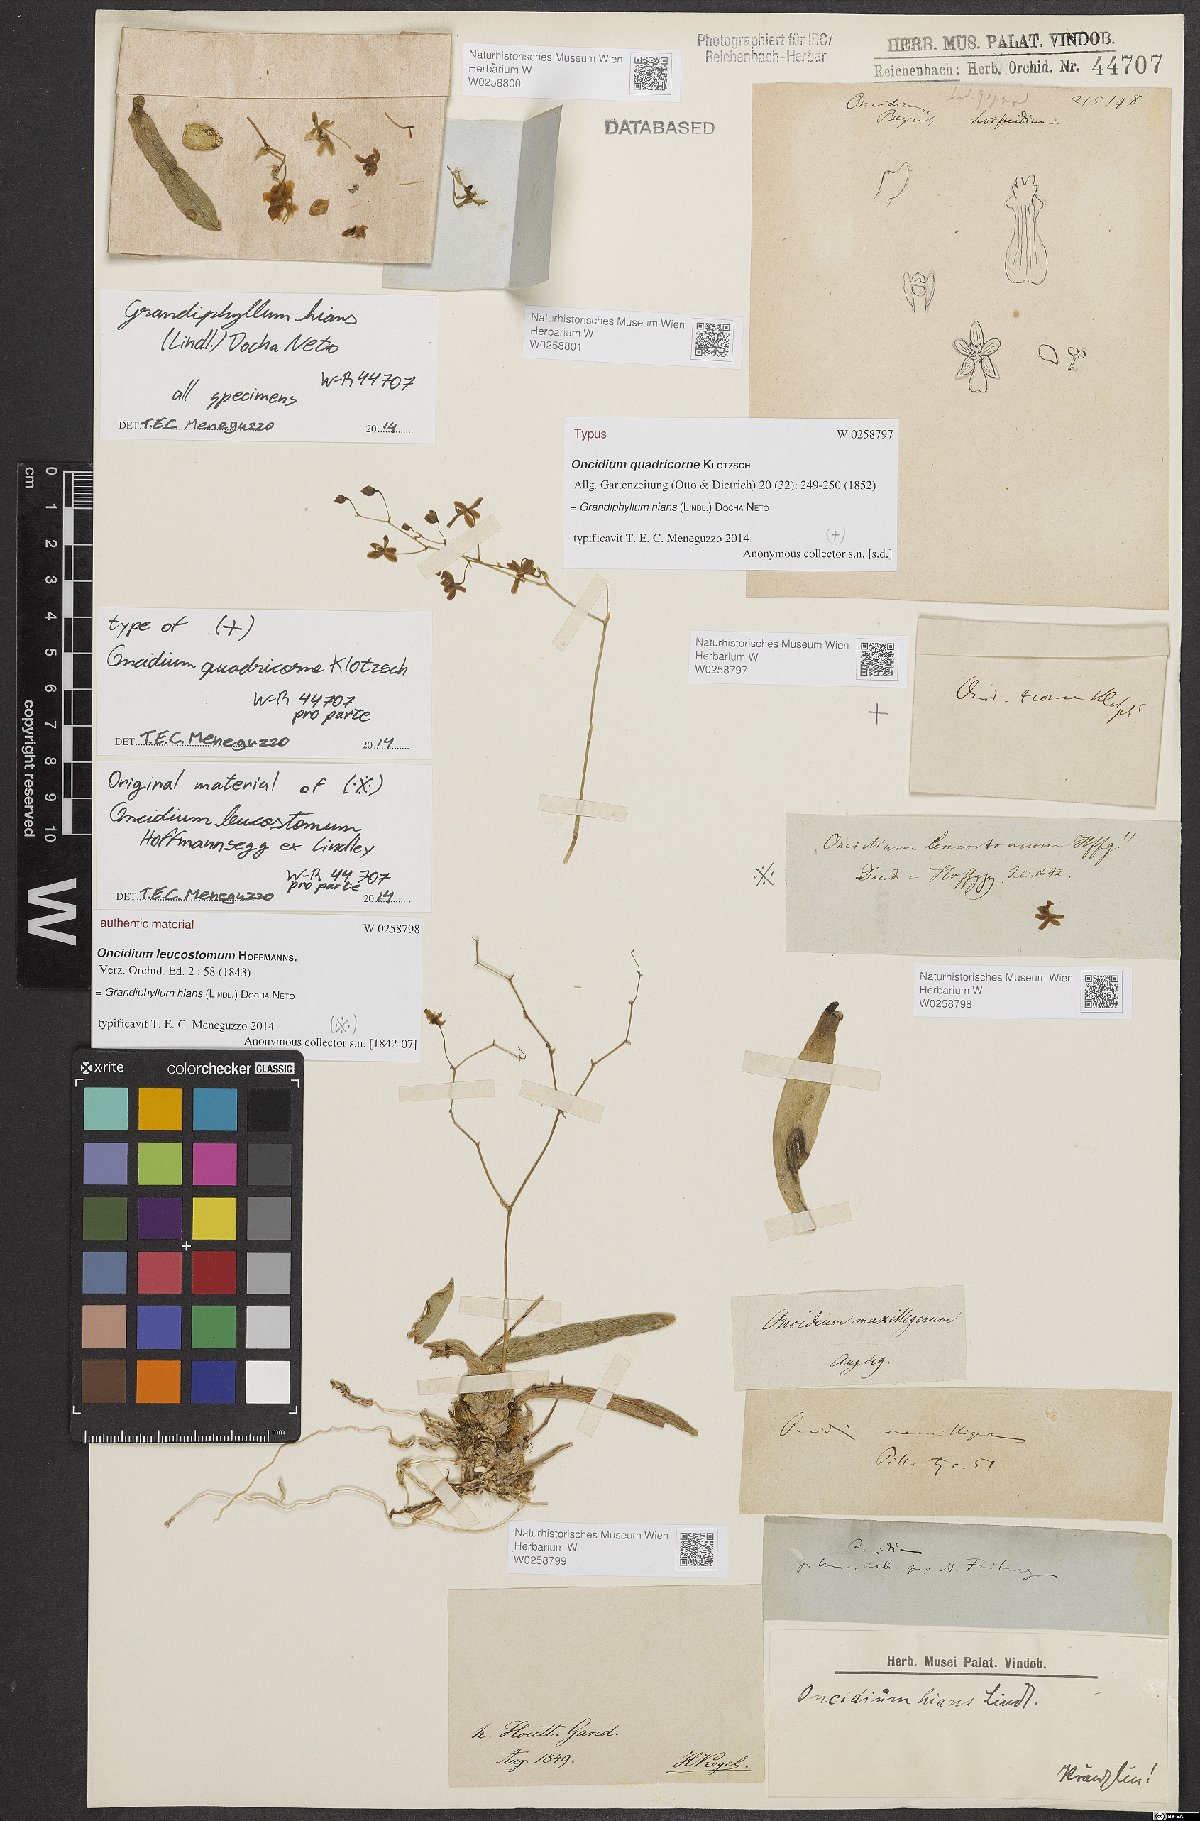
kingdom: Plantae
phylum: Tracheophyta
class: Liliopsida
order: Asparagales
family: Orchidaceae
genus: Grandiphyllum
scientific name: Grandiphyllum hians
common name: Mule-ear orchid
